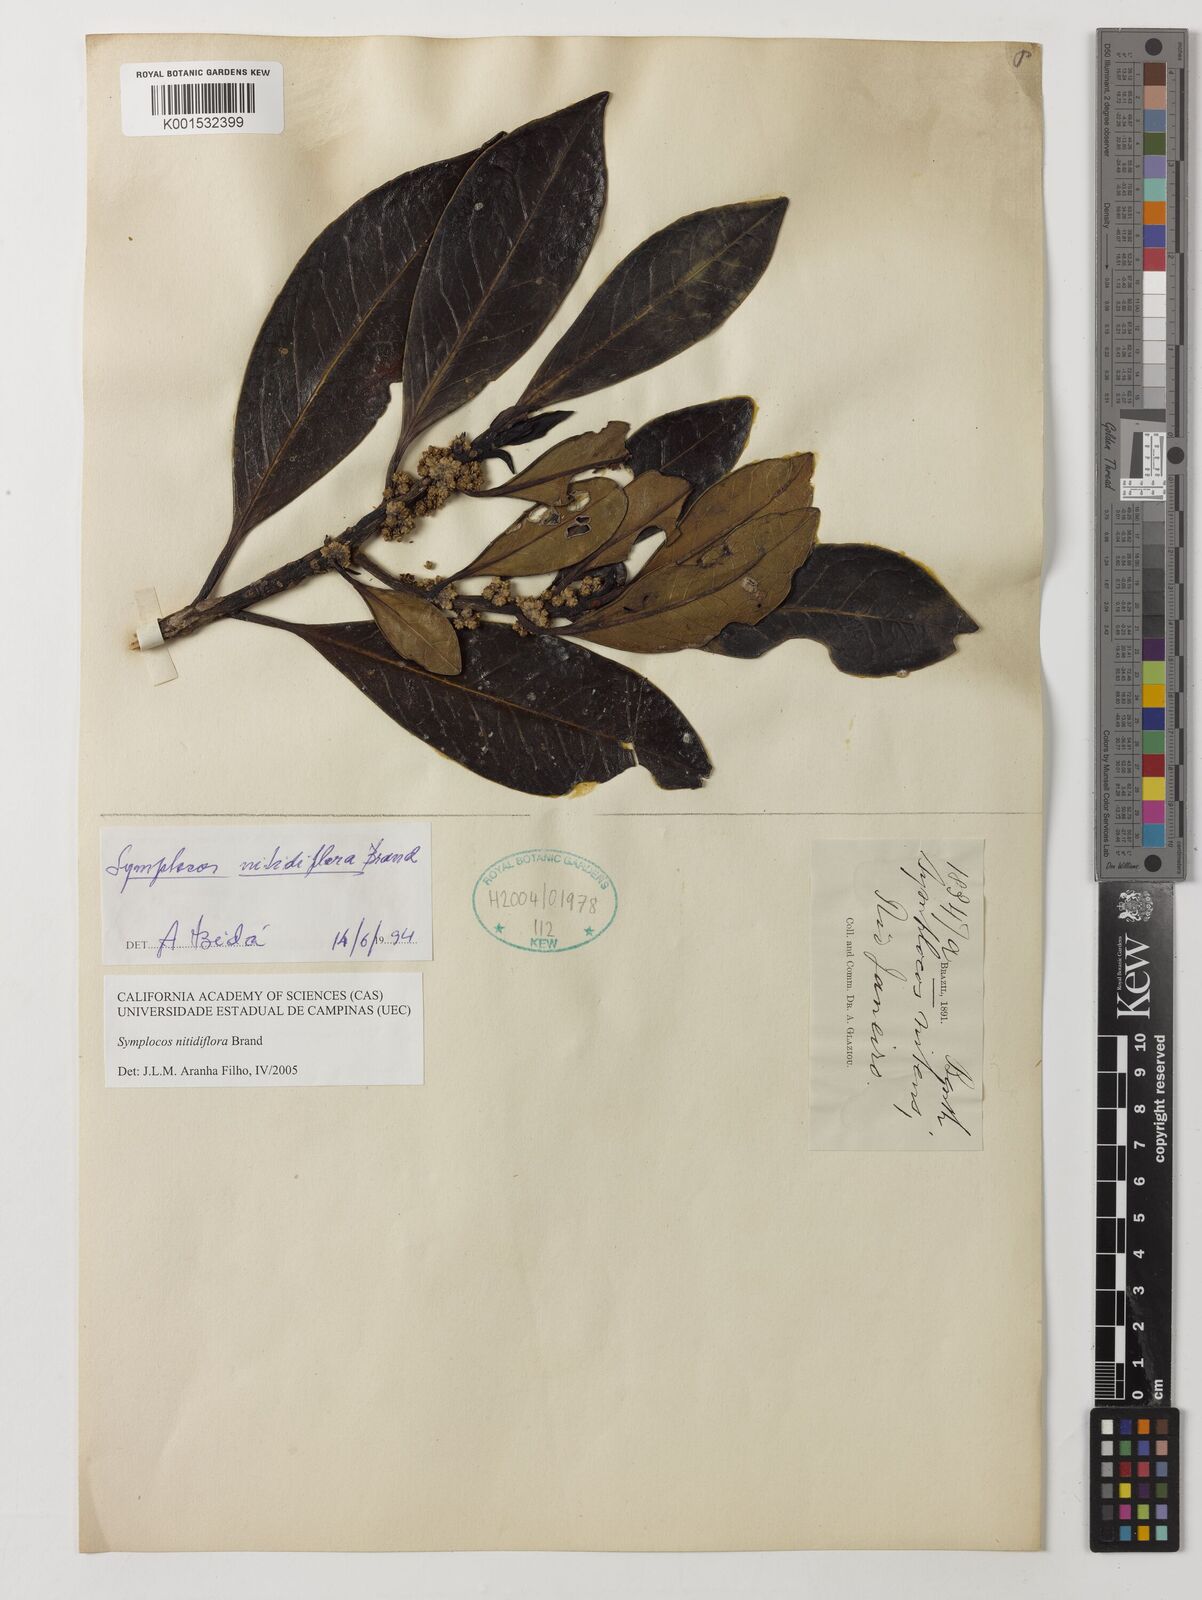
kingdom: Plantae
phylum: Tracheophyta
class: Magnoliopsida
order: Ericales
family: Symplocaceae
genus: Symplocos
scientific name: Symplocos nitidiflora
